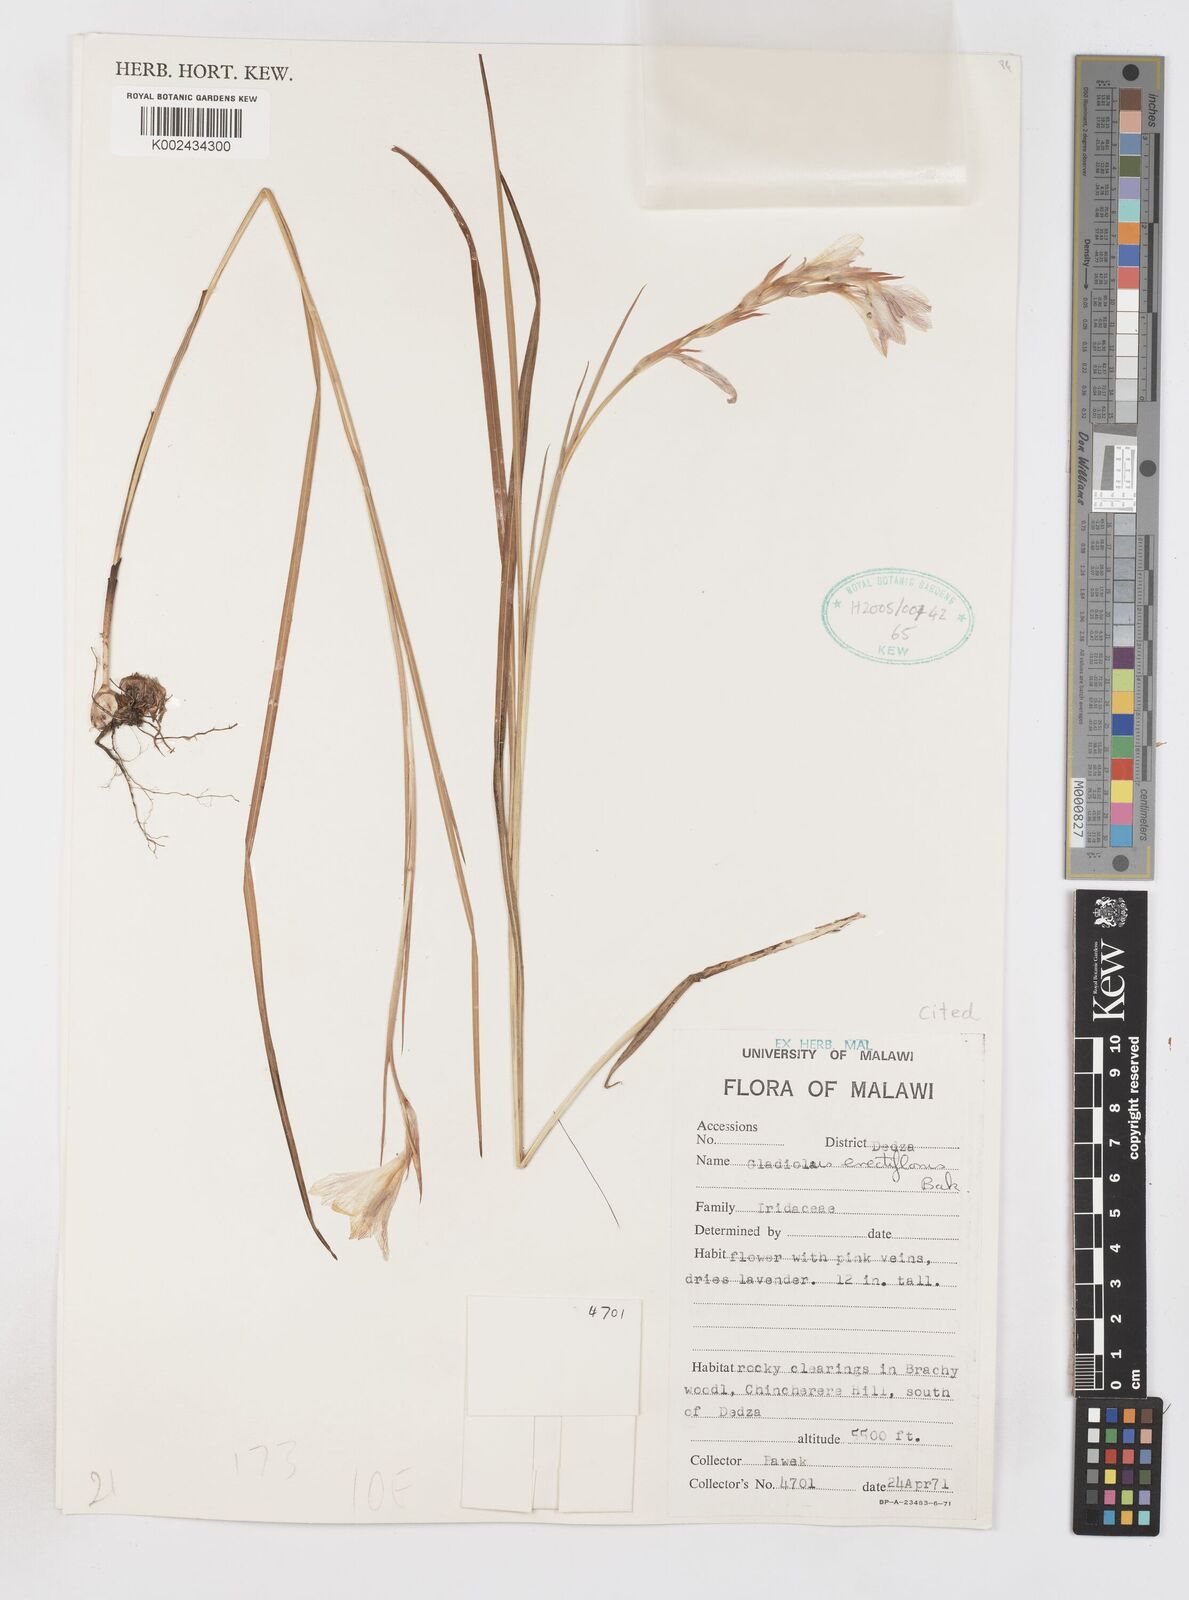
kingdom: Plantae
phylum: Tracheophyta
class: Liliopsida
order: Asparagales
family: Iridaceae
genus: Gladiolus
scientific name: Gladiolus erectiflorus
